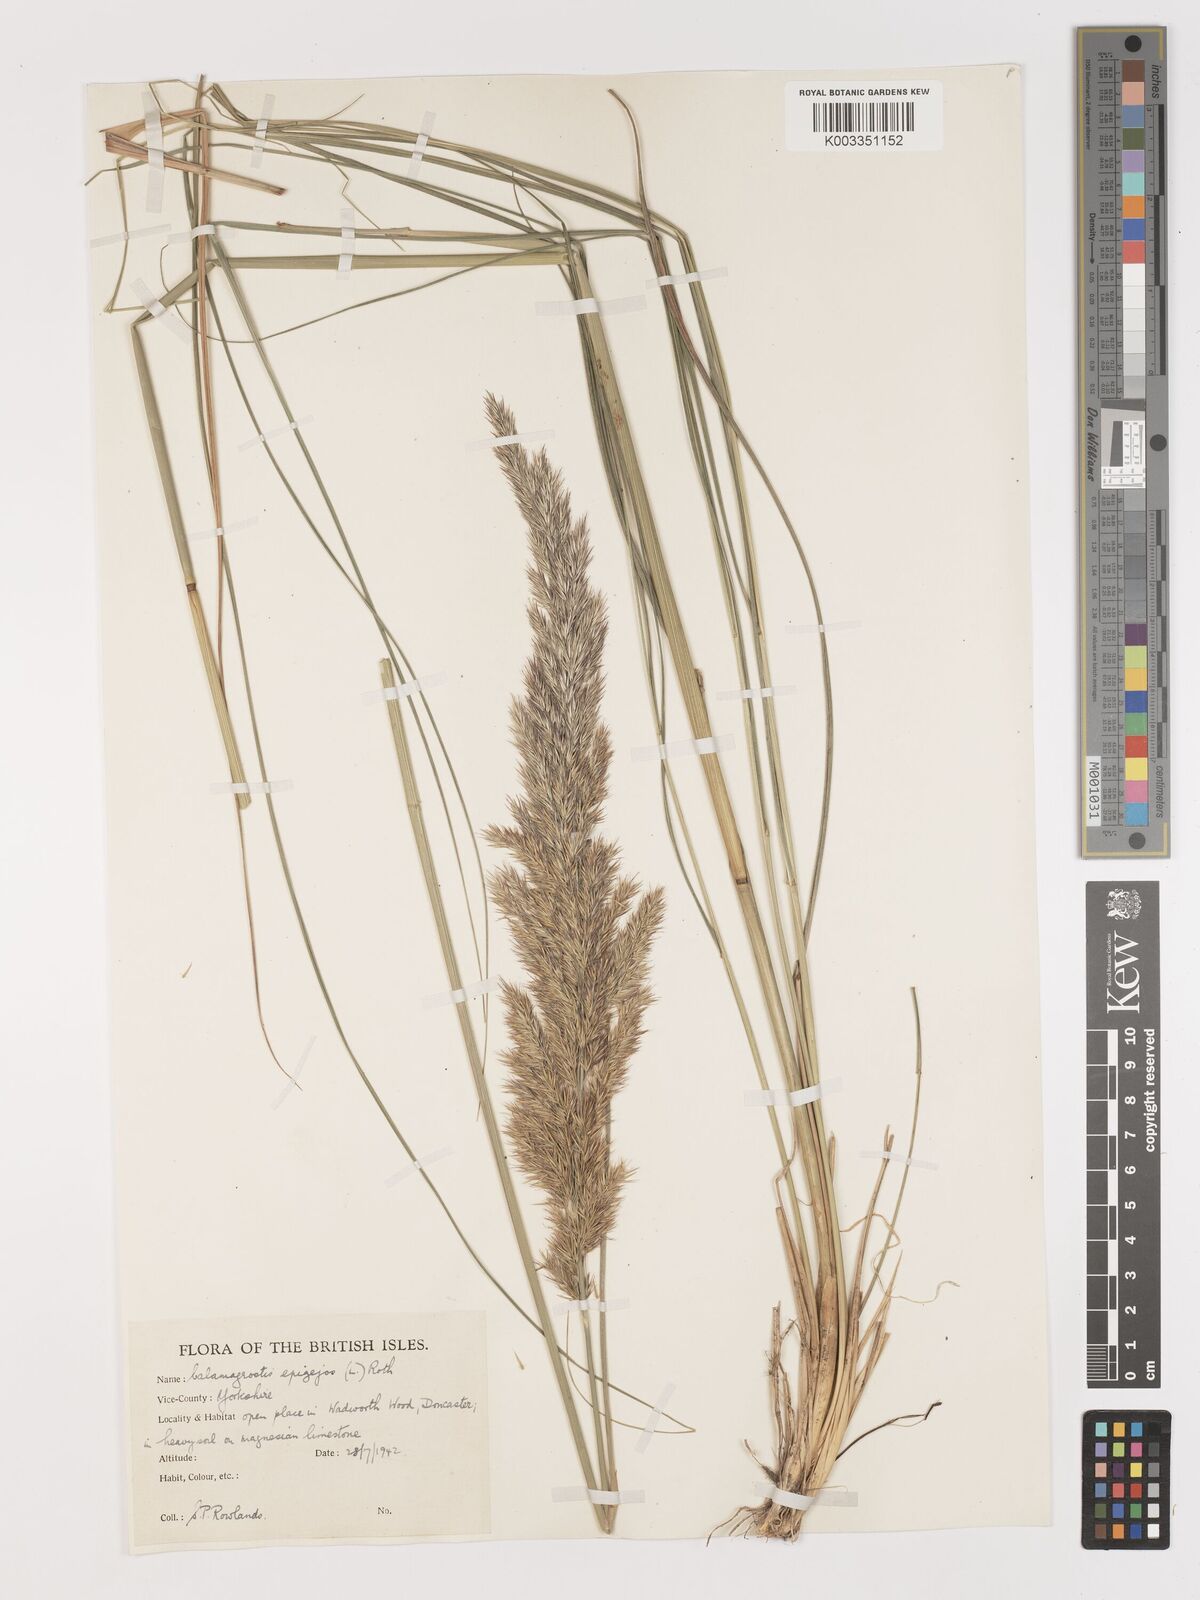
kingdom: Plantae
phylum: Tracheophyta
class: Liliopsida
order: Poales
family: Poaceae
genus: Calamagrostis
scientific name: Calamagrostis
